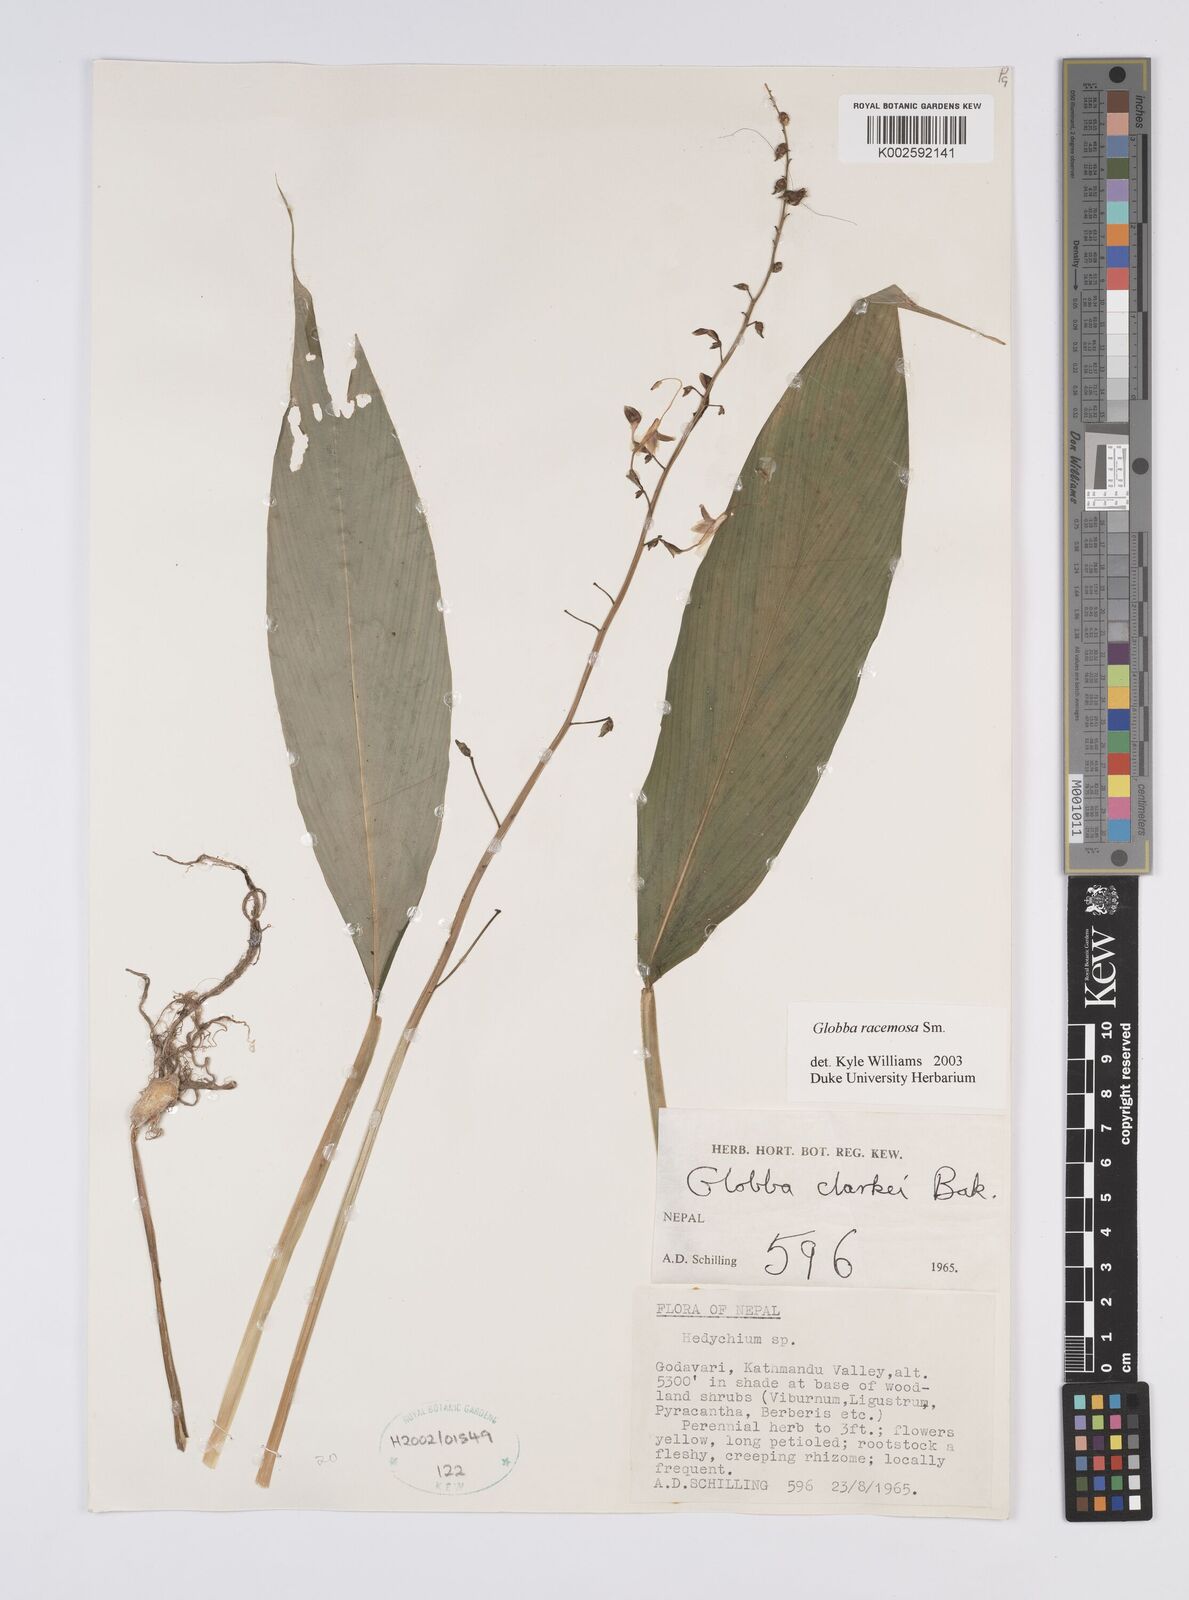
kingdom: Plantae
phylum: Tracheophyta
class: Liliopsida
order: Zingiberales
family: Zingiberaceae
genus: Globba
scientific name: Globba racemosa
